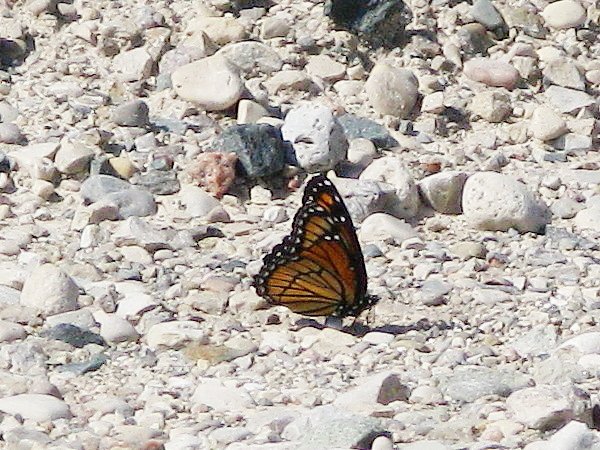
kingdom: Animalia
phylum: Arthropoda
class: Insecta
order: Lepidoptera
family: Nymphalidae
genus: Limenitis
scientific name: Limenitis archippus
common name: Viceroy
